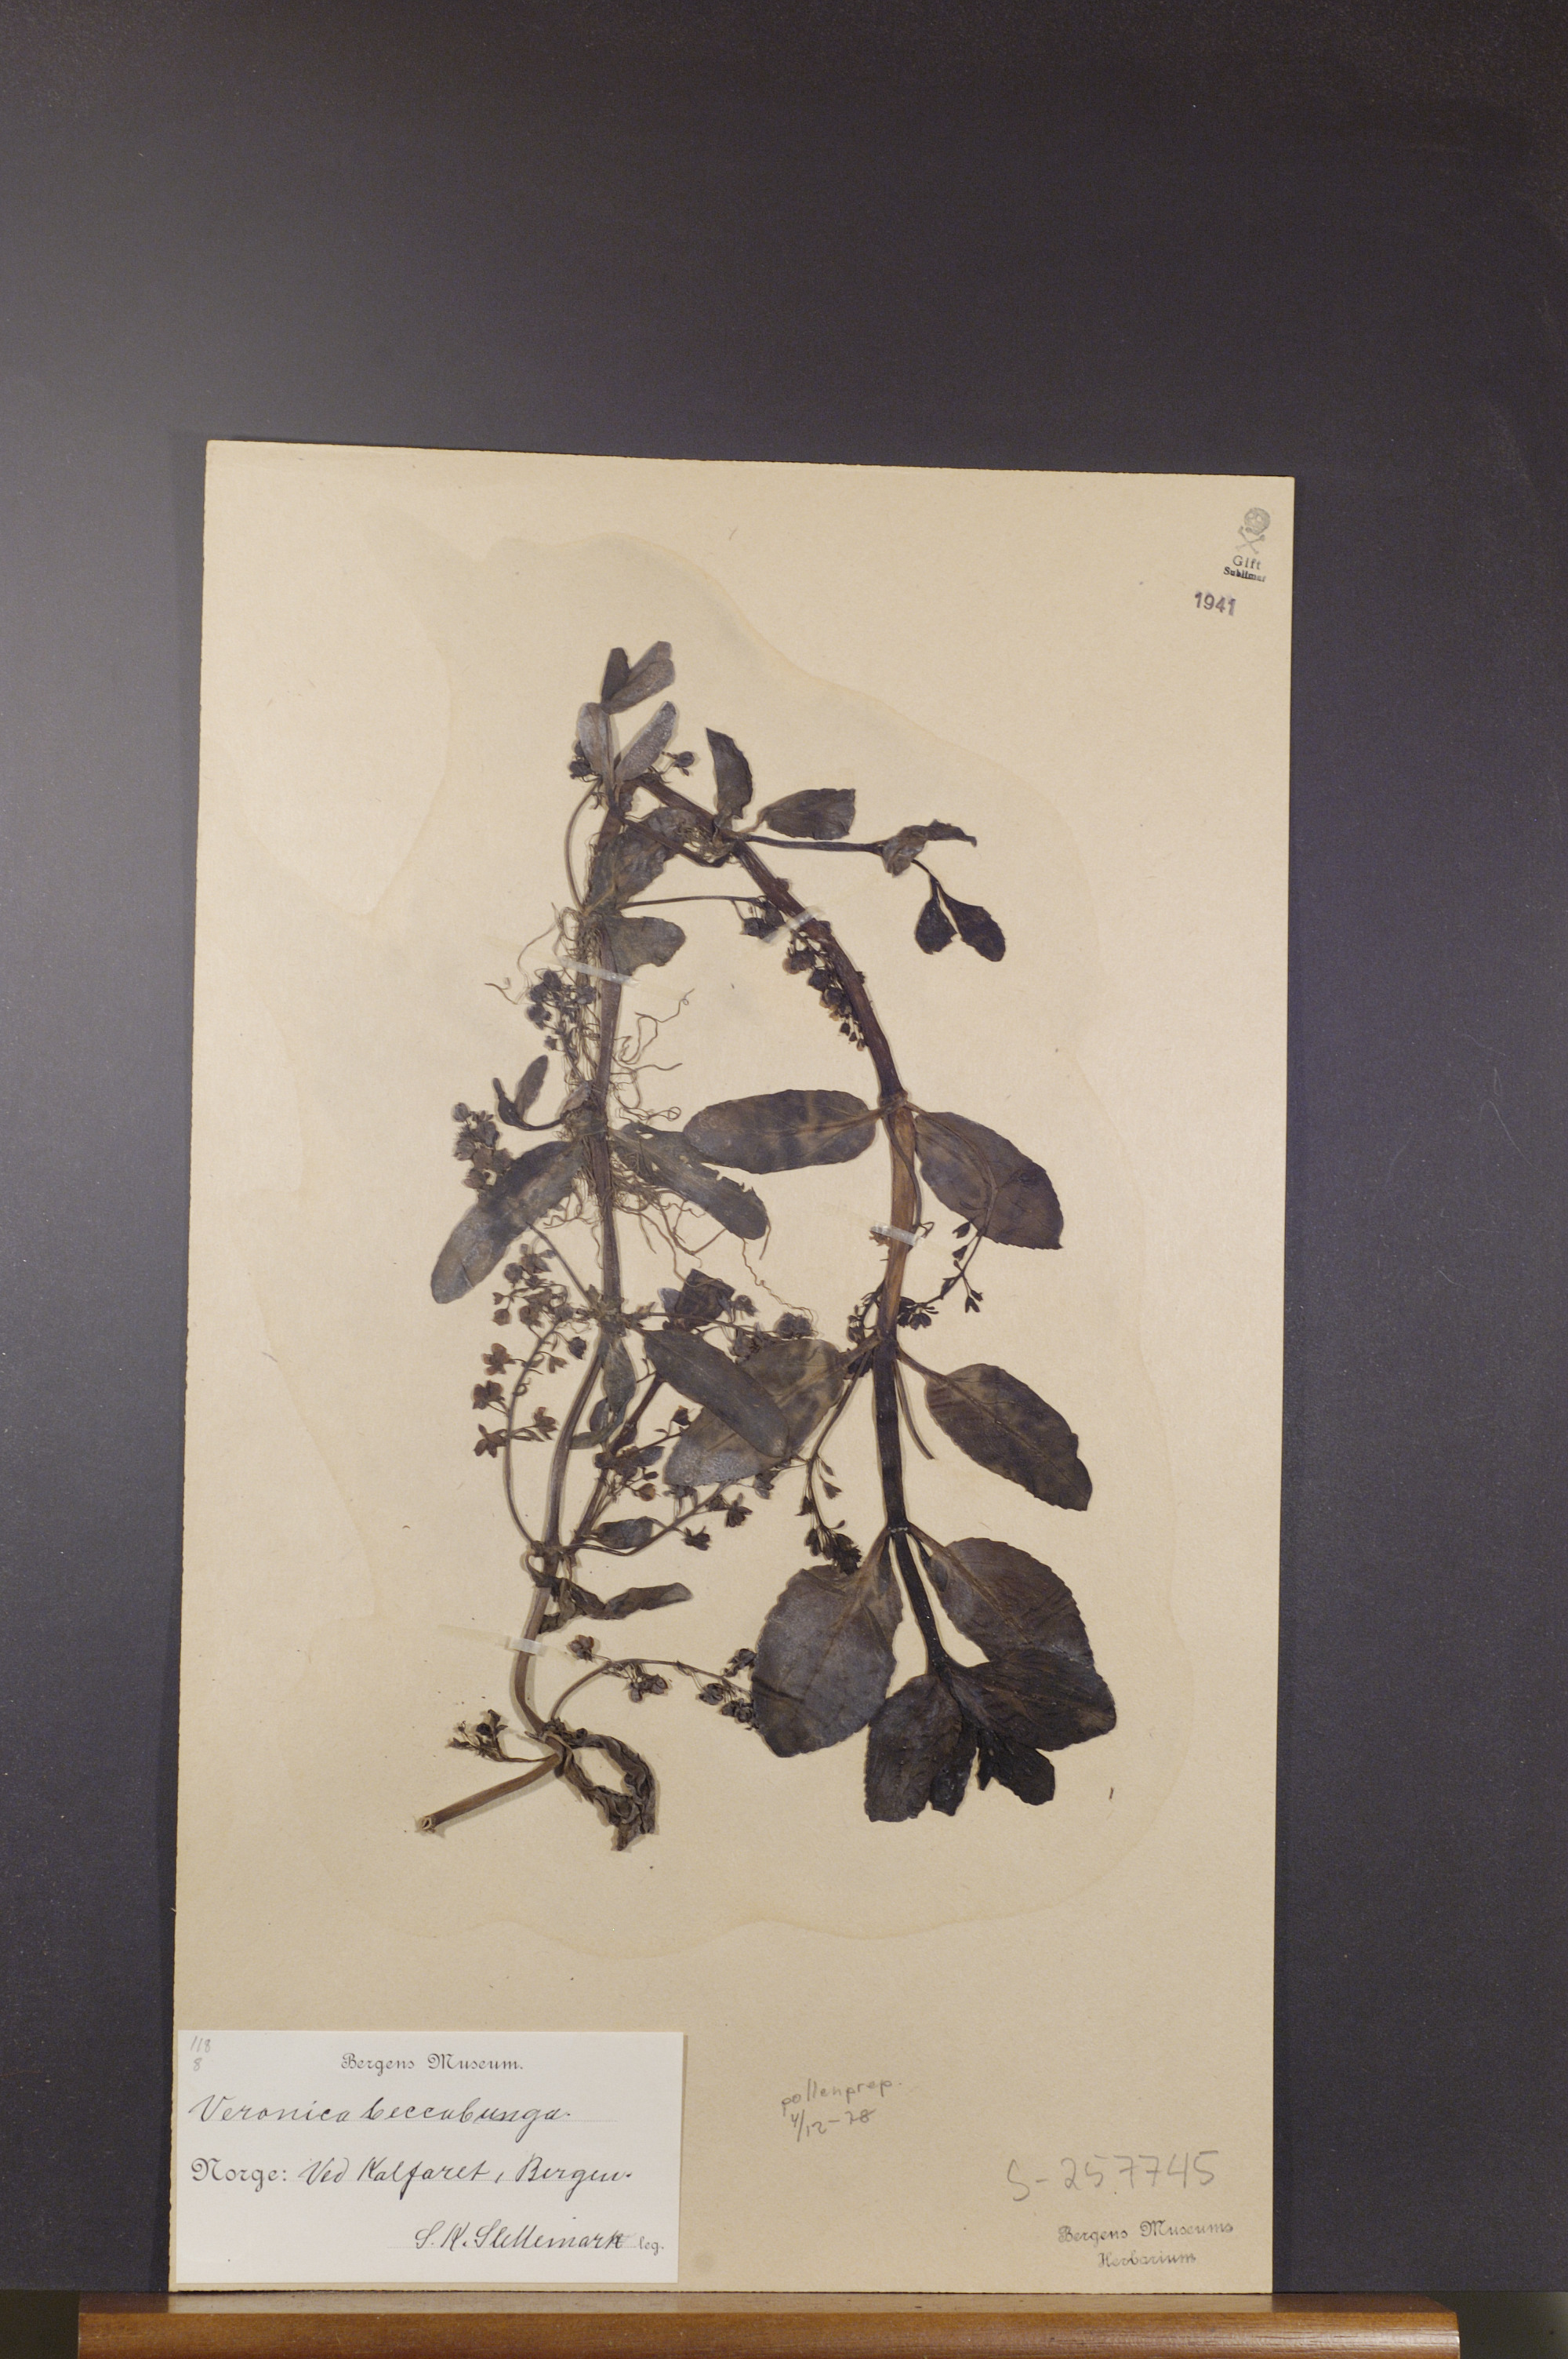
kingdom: Plantae
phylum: Tracheophyta
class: Magnoliopsida
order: Lamiales
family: Plantaginaceae
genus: Veronica
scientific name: Veronica beccabunga
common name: Brooklime
